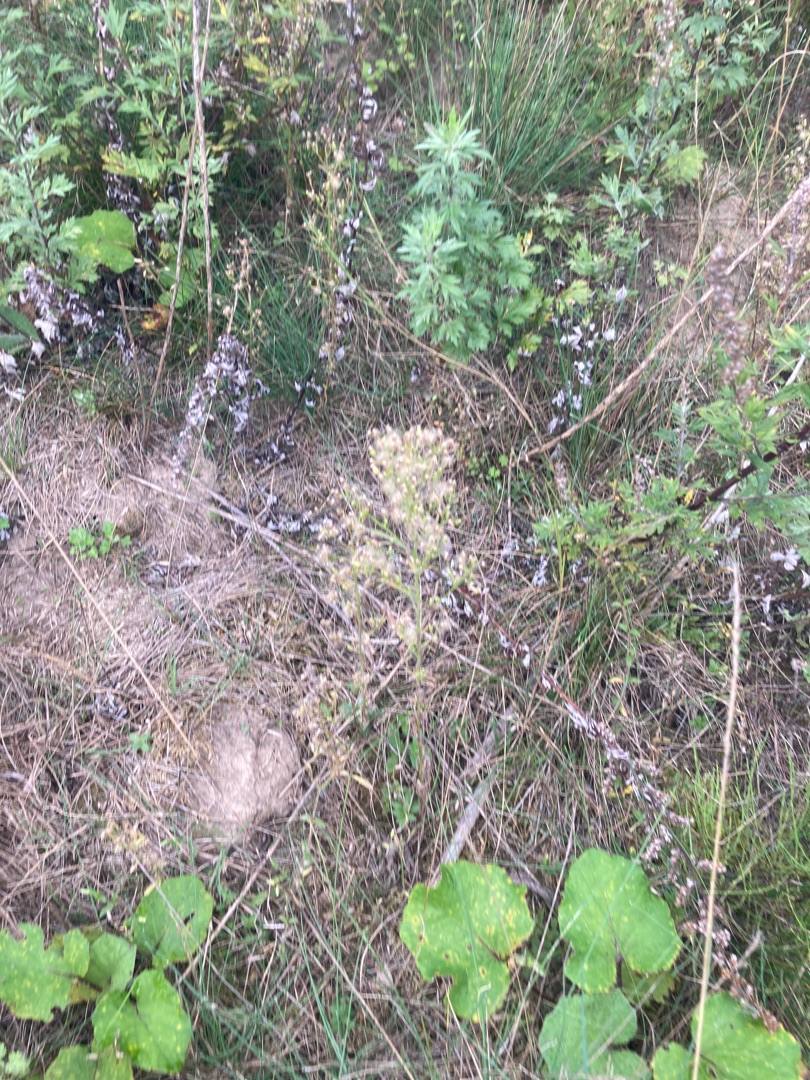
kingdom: Plantae
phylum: Tracheophyta
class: Magnoliopsida
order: Asterales
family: Asteraceae
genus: Erigeron
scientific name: Erigeron canadensis
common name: Kanadisk bakkestjerne
